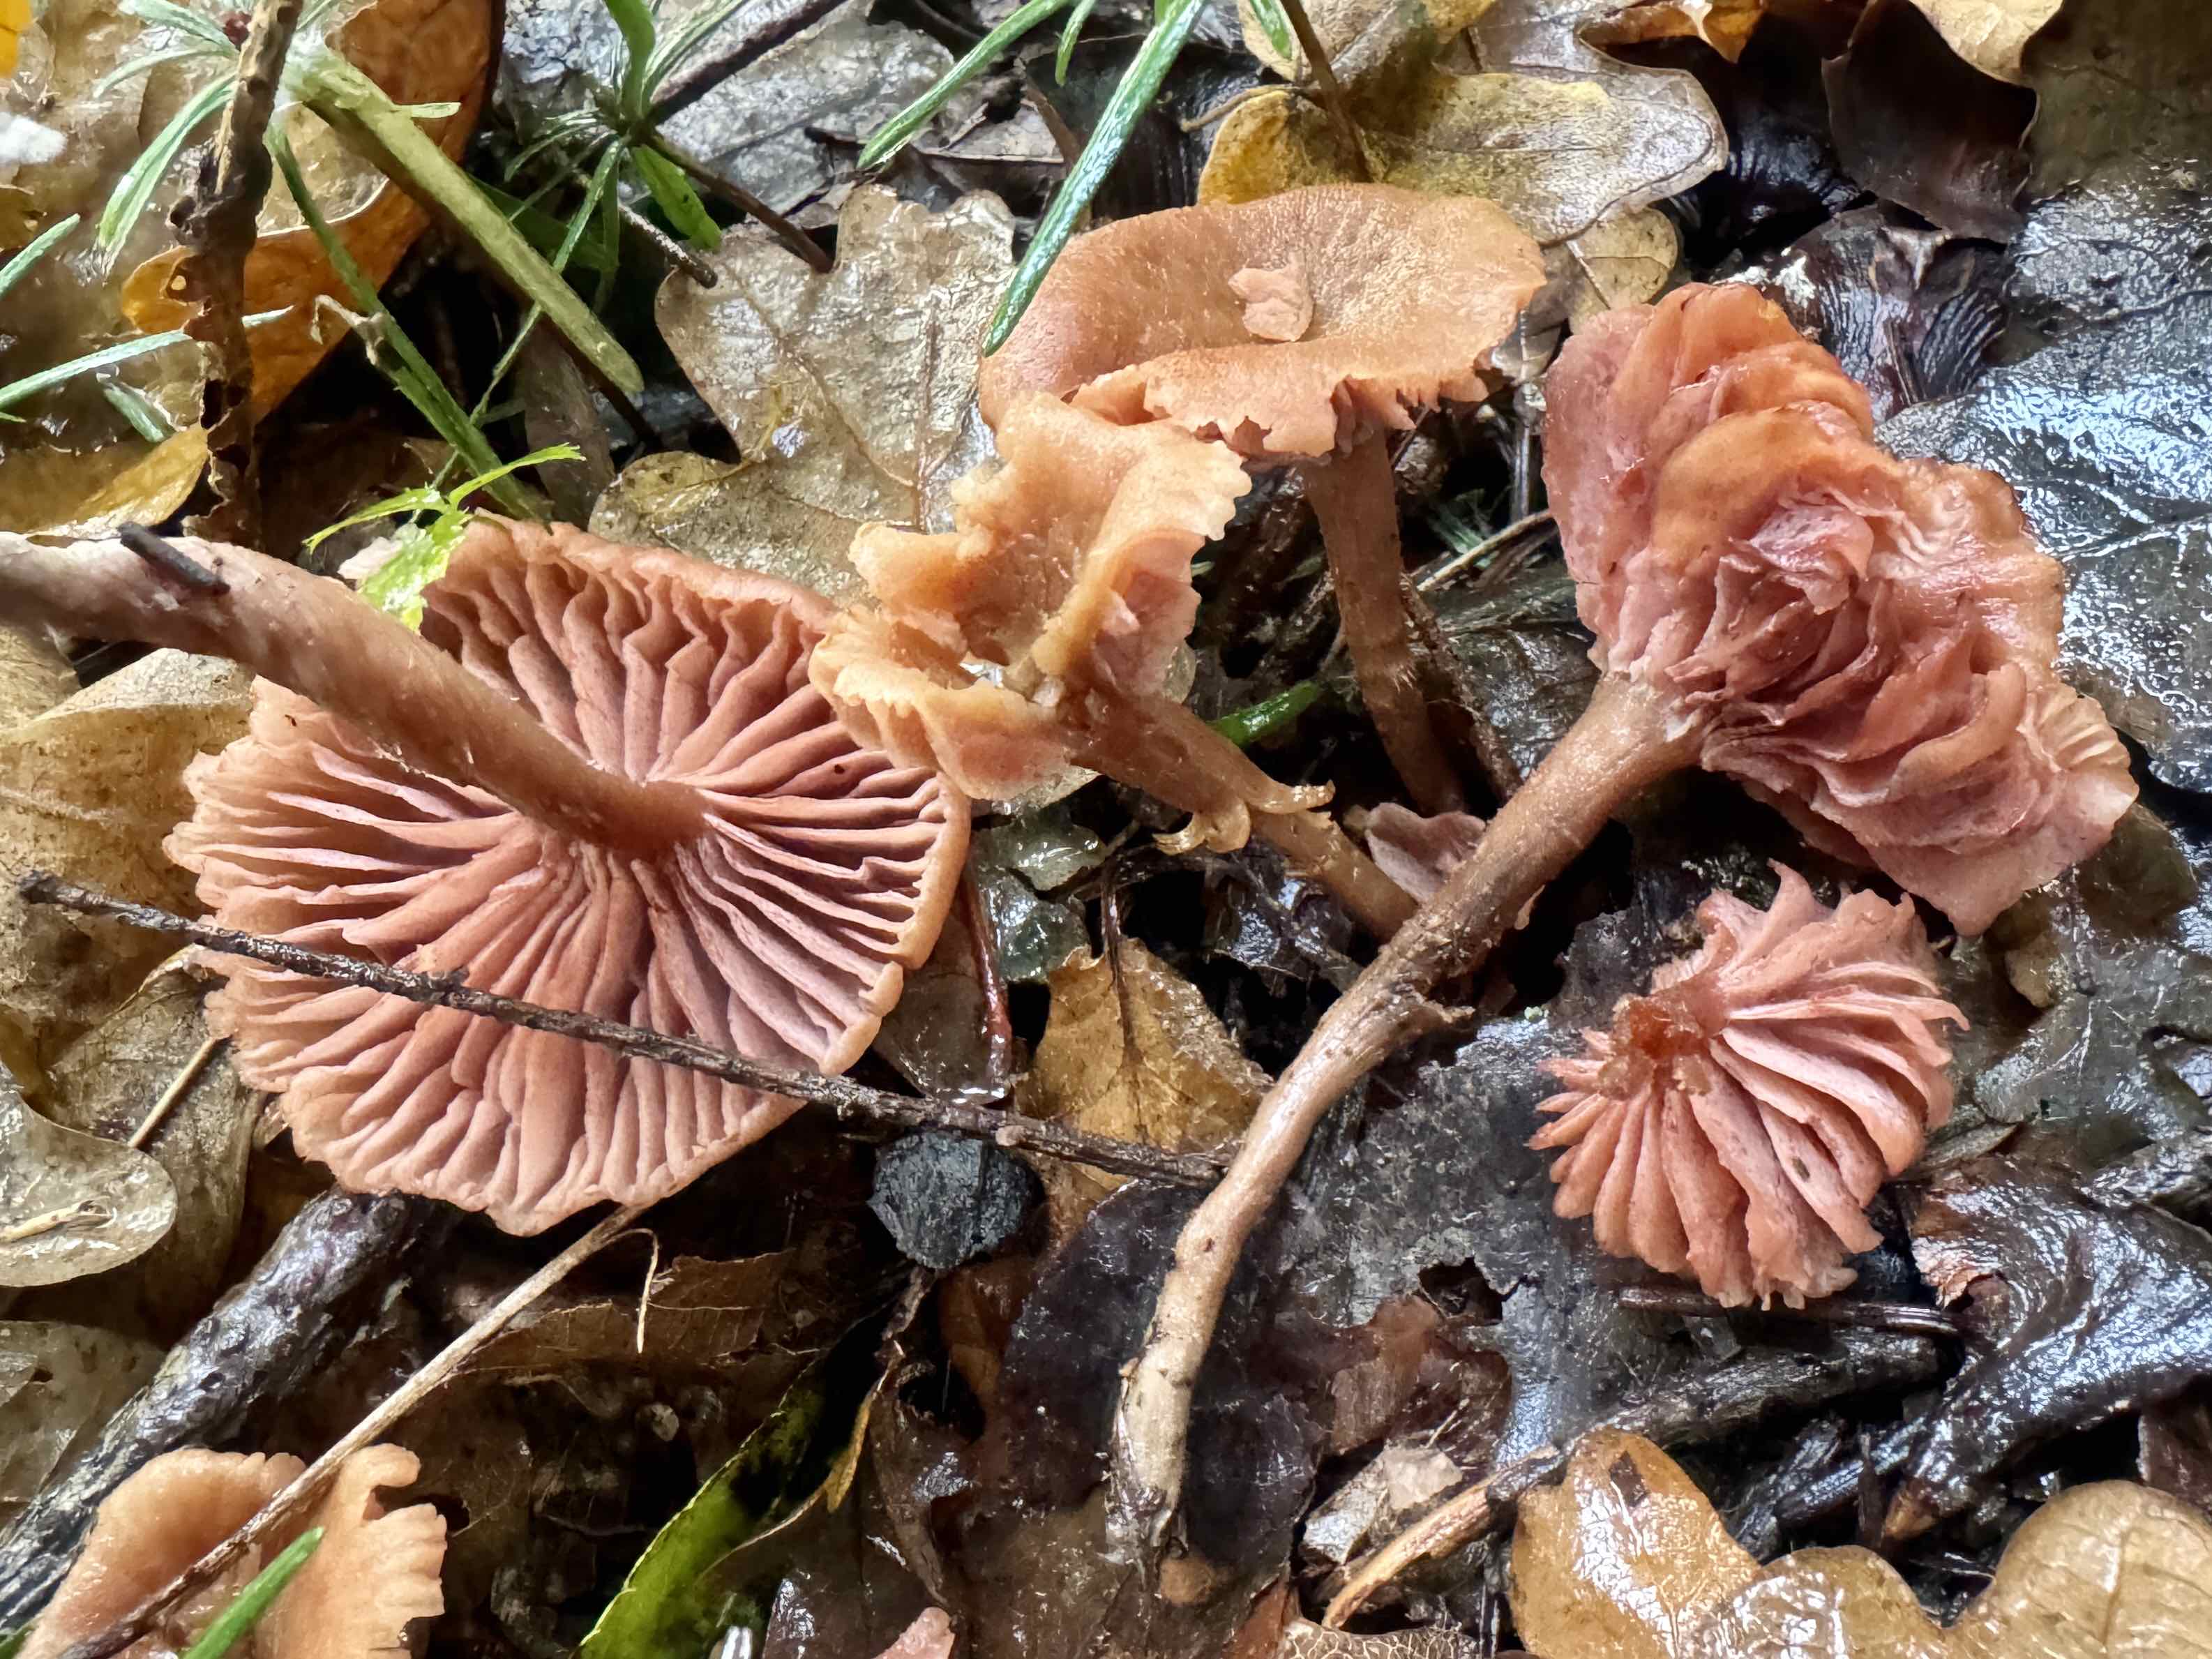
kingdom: Fungi
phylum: Basidiomycota
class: Agaricomycetes
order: Agaricales
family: Hydnangiaceae
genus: Laccaria
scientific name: Laccaria laccata
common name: rød ametysthat
